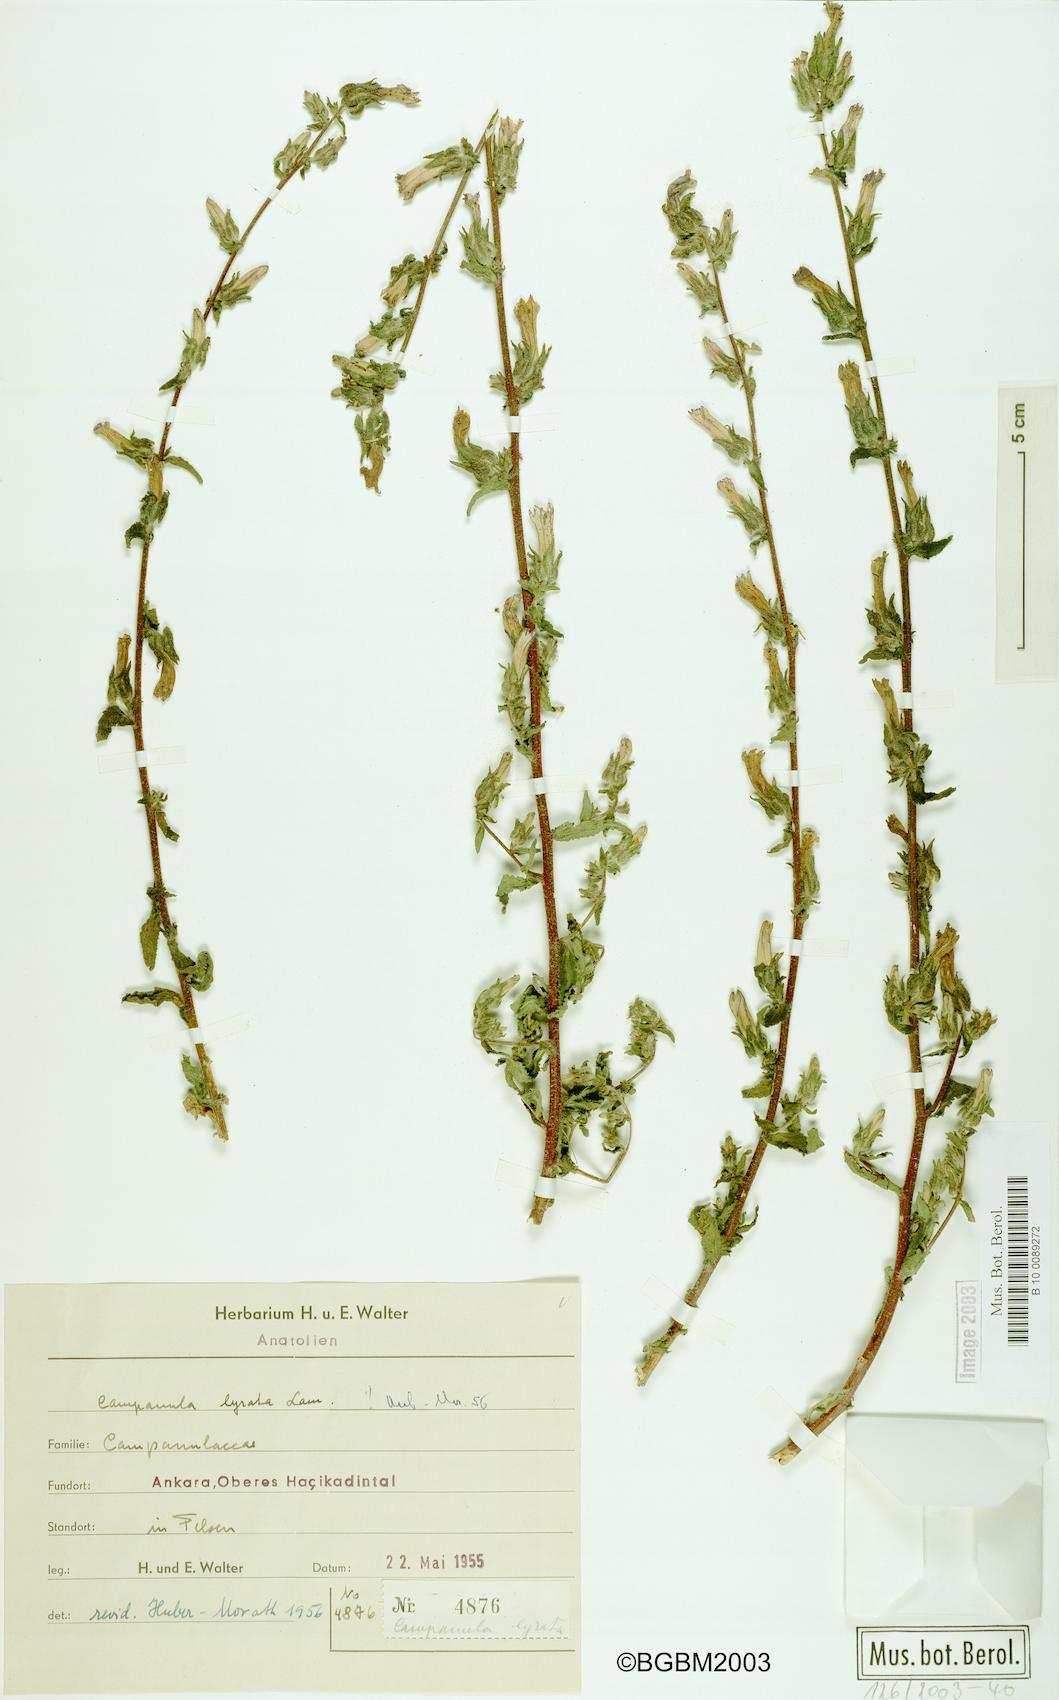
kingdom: Plantae
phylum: Tracheophyta
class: Magnoliopsida
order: Asterales
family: Campanulaceae
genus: Campanula
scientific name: Campanula lyrata
